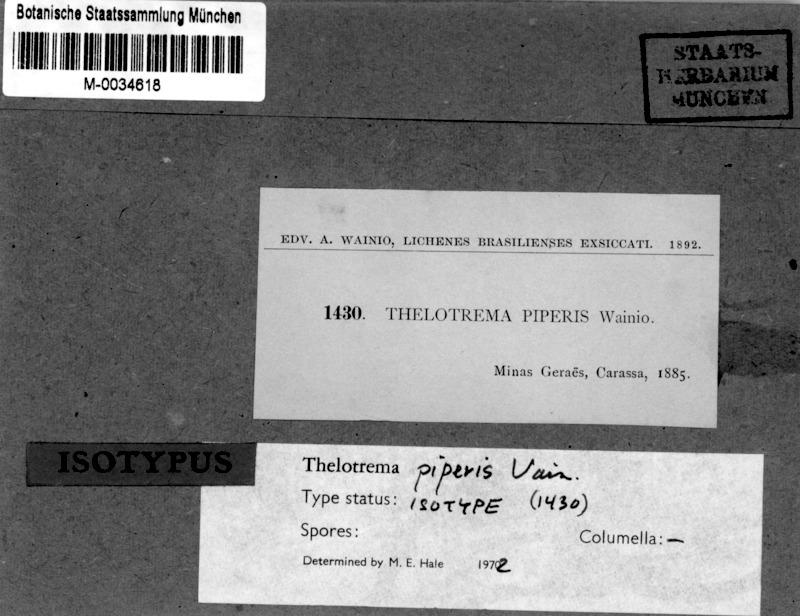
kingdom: Fungi
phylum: Ascomycota
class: Lecanoromycetes
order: Ostropales
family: Graphidaceae
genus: Ocellularia
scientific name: Ocellularia piperis
